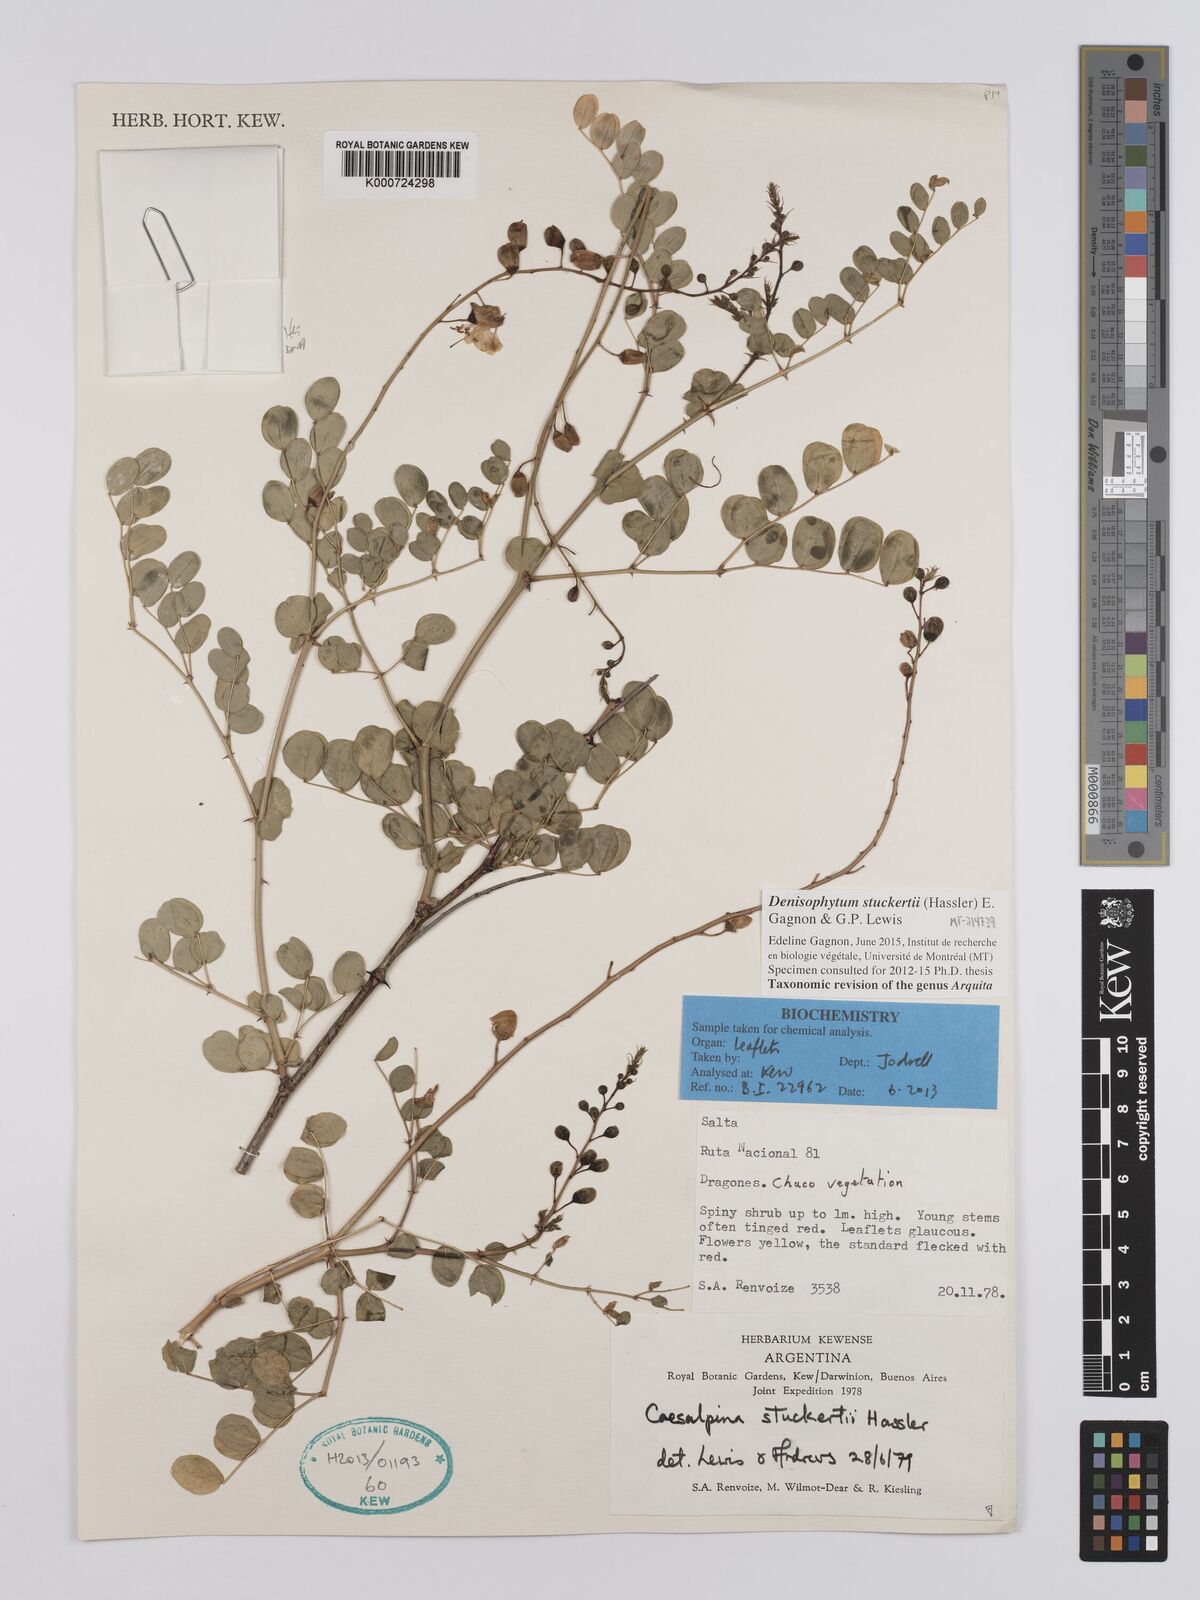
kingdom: Plantae
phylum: Tracheophyta
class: Magnoliopsida
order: Fabales
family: Fabaceae
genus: Denisophytum
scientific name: Denisophytum stuckertii
